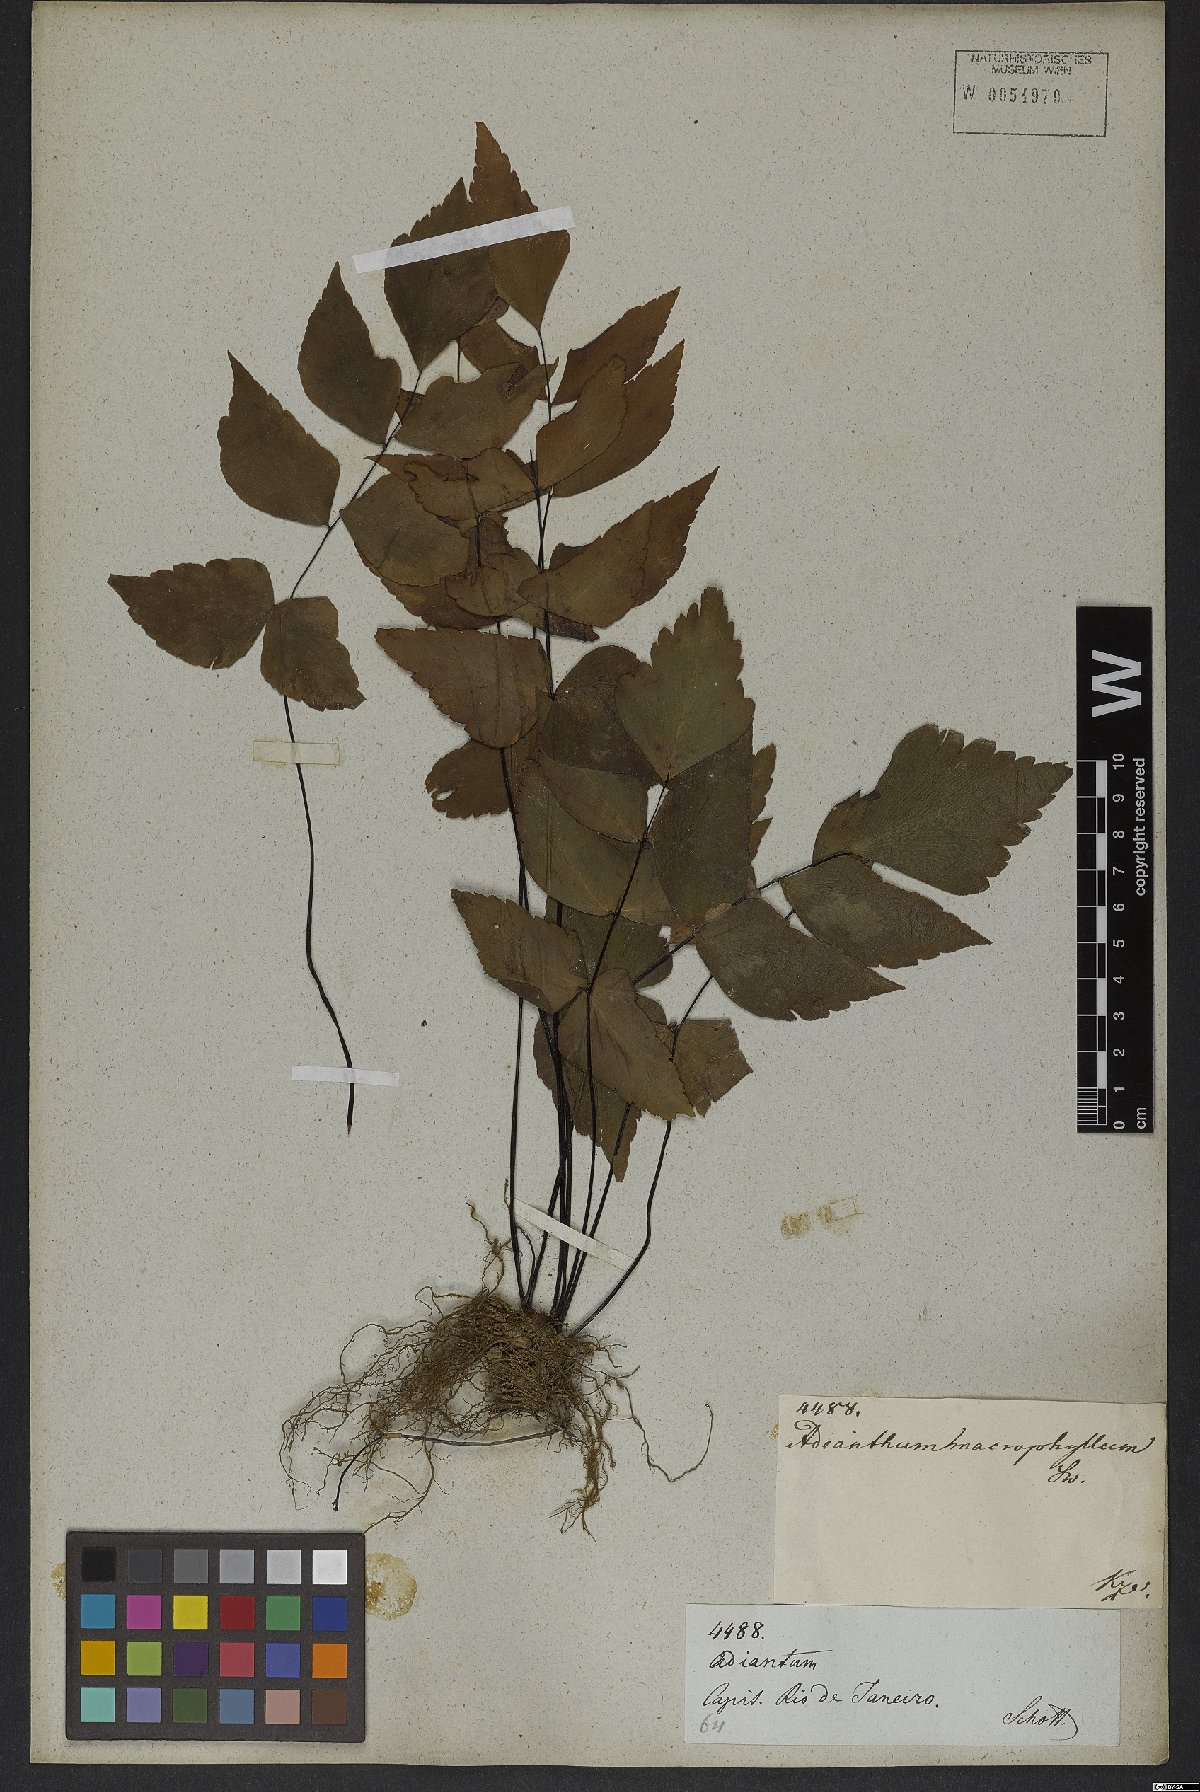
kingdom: Plantae
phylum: Tracheophyta
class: Polypodiopsida
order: Polypodiales
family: Pteridaceae
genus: Adiantum
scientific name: Adiantum macrophyllum
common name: Largeleaf maidenhair
